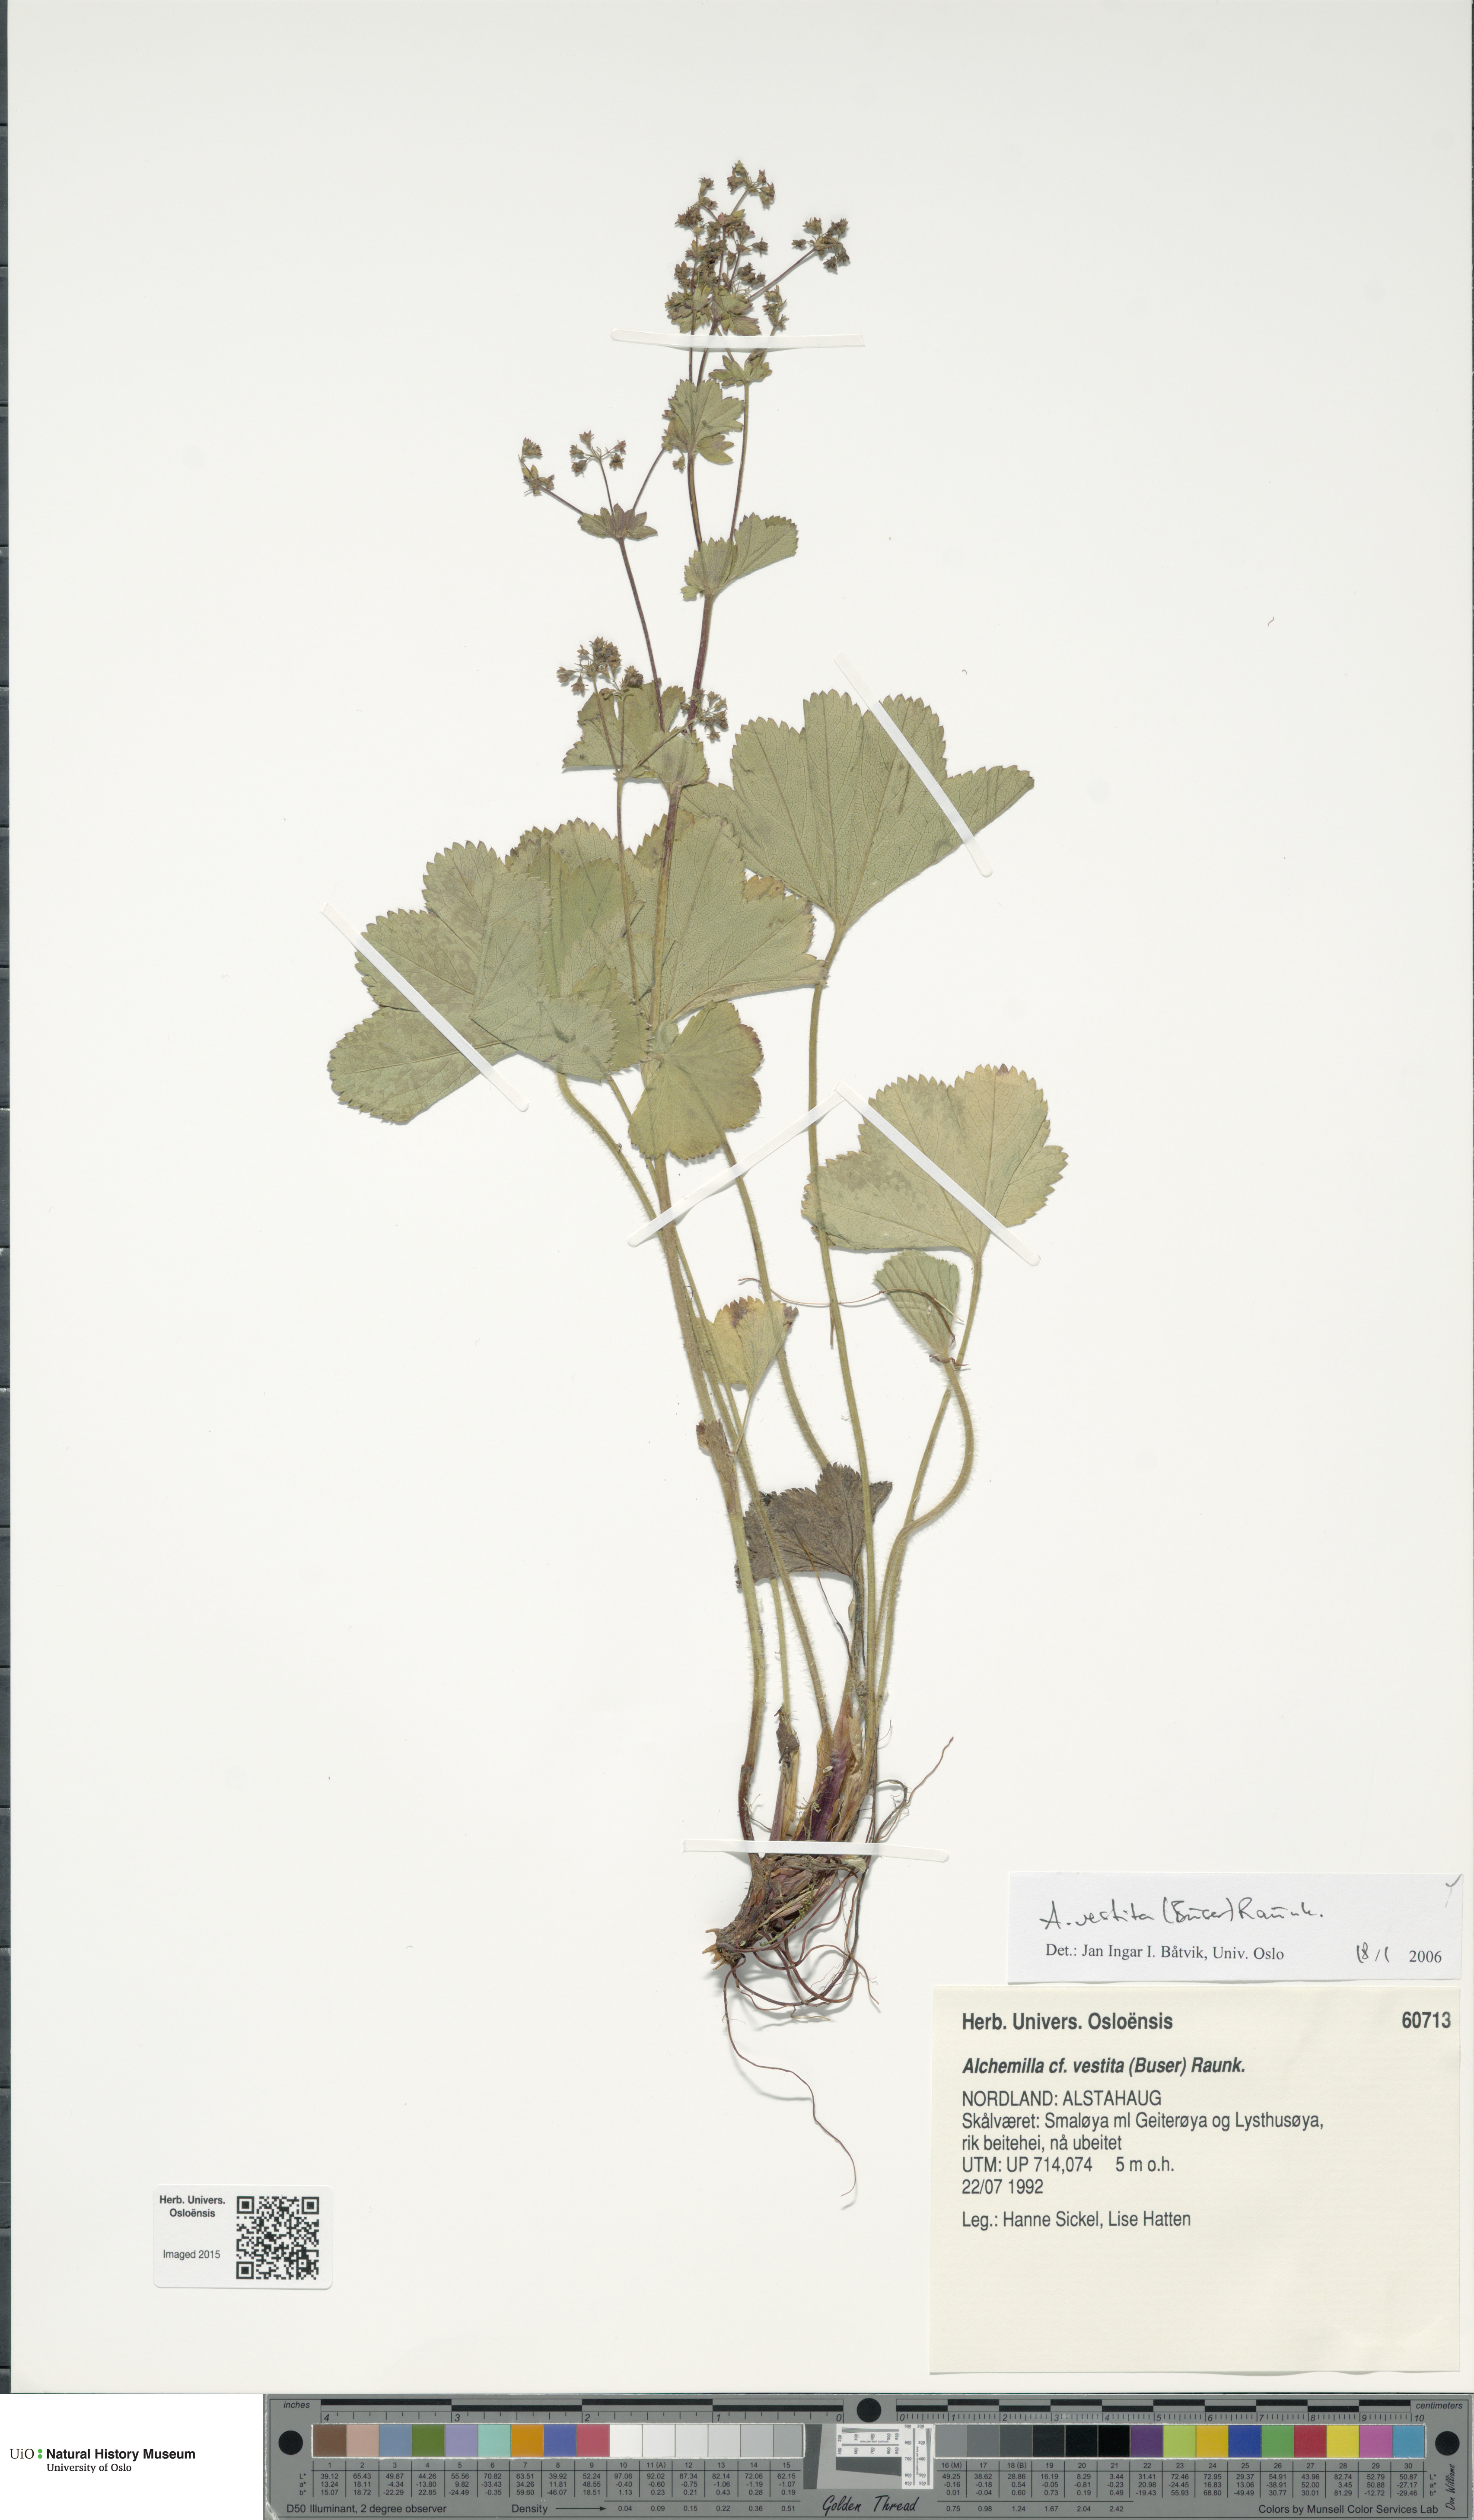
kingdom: Plantae
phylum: Tracheophyta
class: Magnoliopsida
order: Rosales
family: Rosaceae
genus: Alchemilla
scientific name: Alchemilla filicaulis
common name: Hairy lady's-mantle
